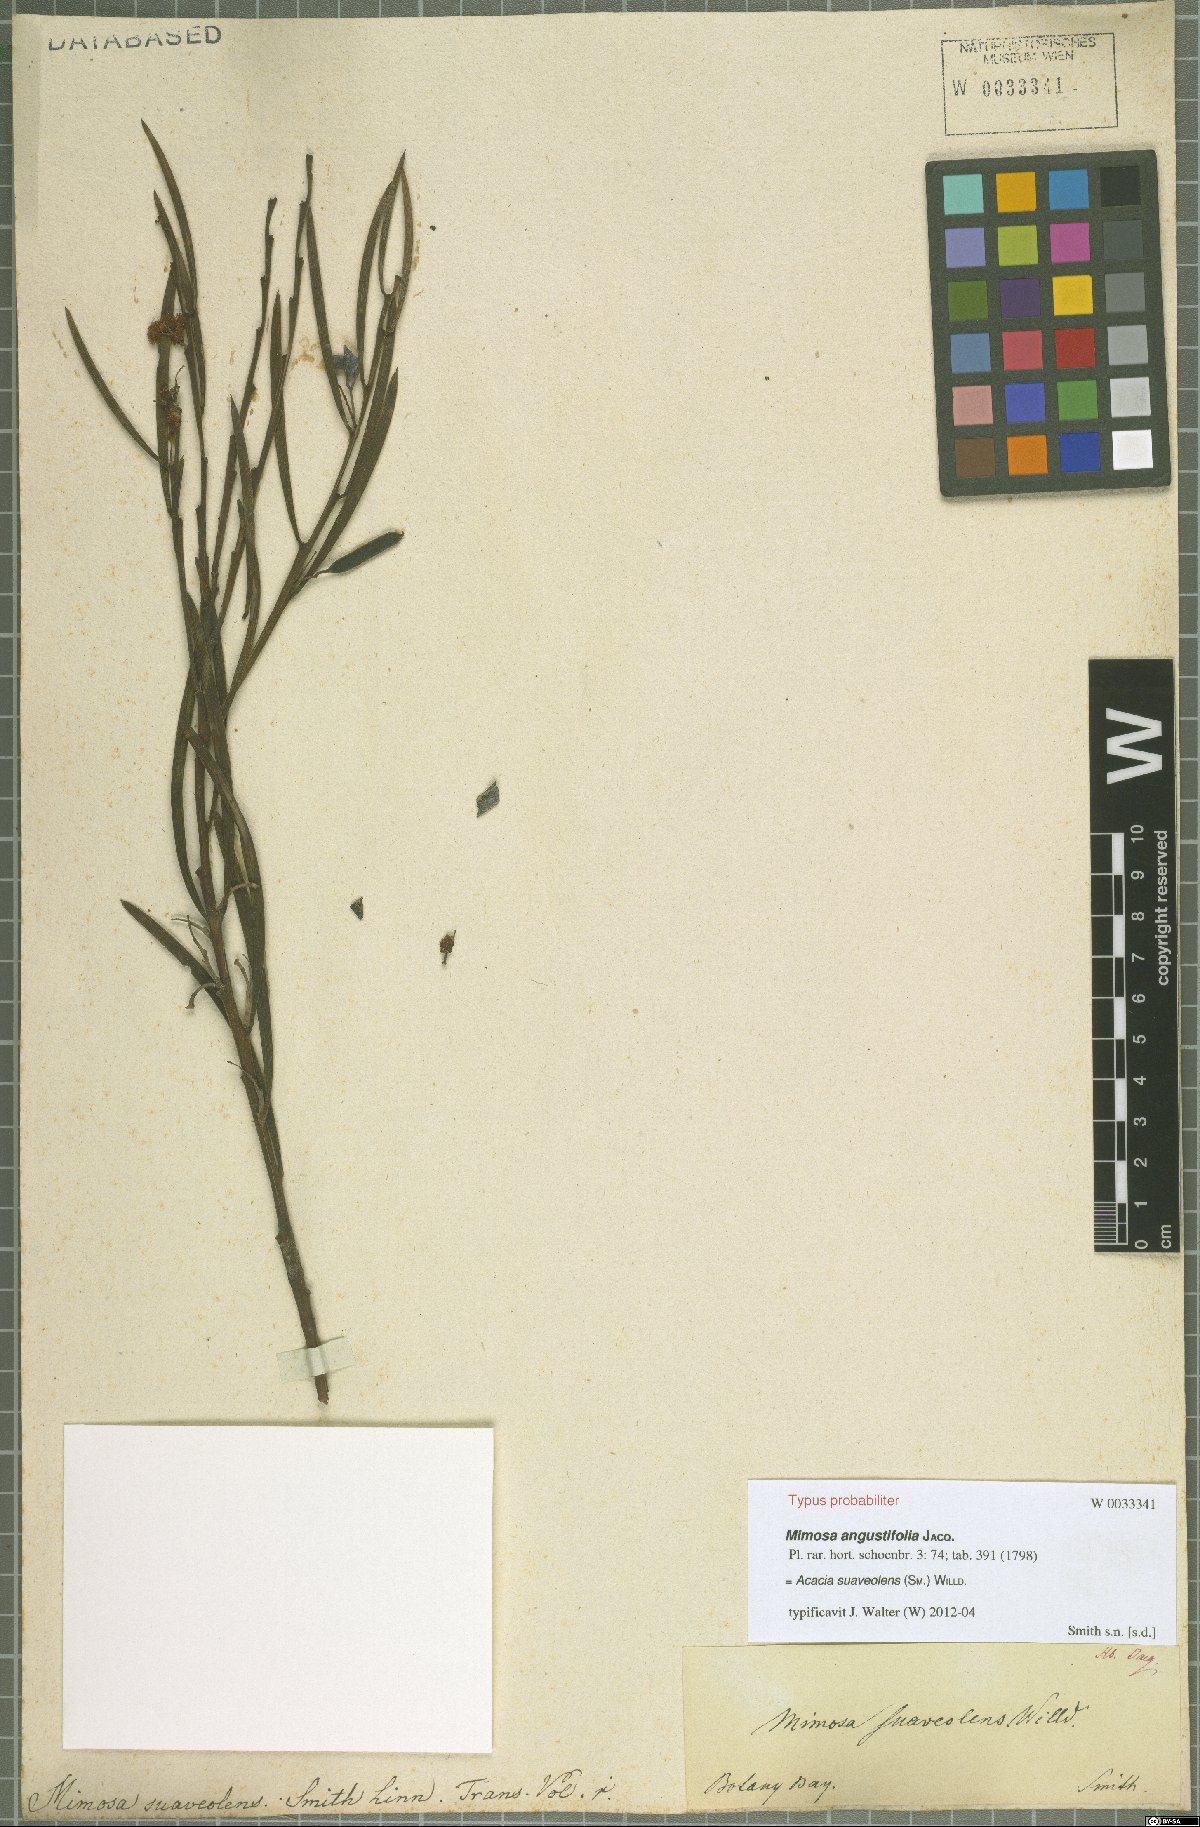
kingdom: Plantae
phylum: Tracheophyta
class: Magnoliopsida
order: Fabales
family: Fabaceae
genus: Acacia
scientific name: Acacia suaveolens
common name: Sweet acacia
